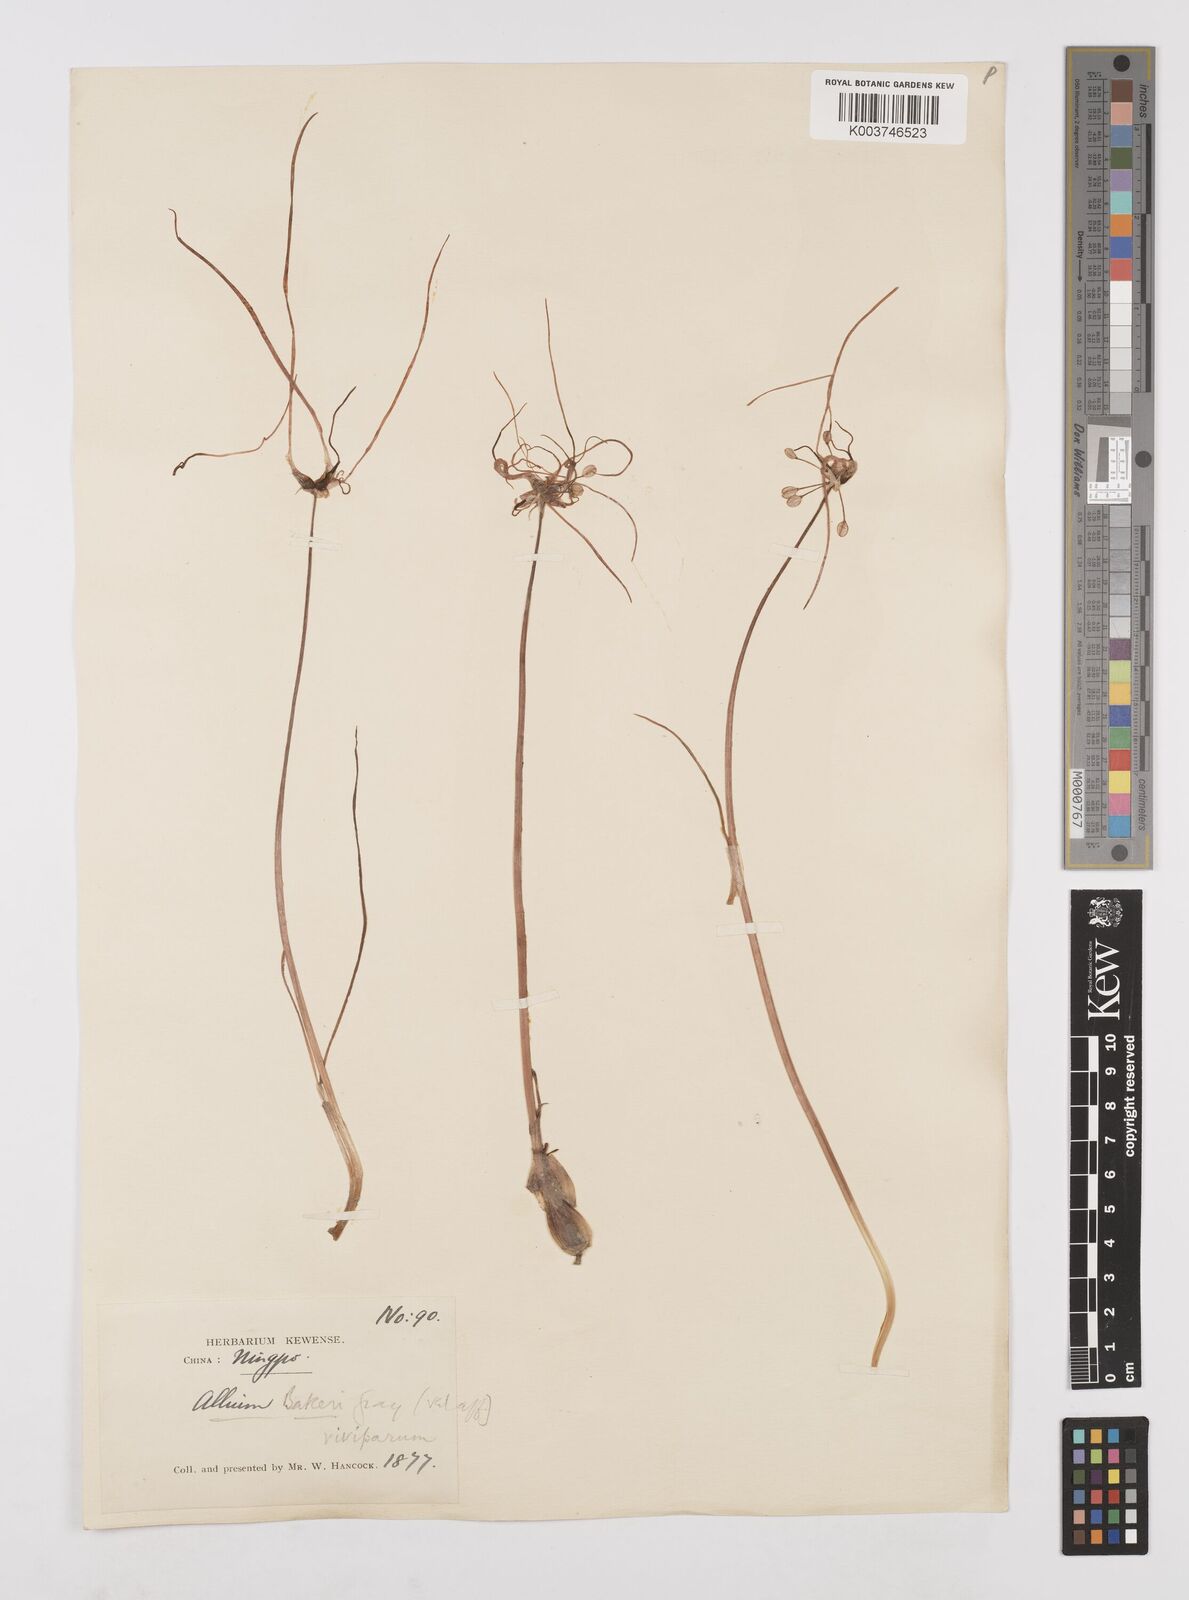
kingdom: Plantae
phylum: Tracheophyta
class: Liliopsida
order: Asparagales
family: Amaryllidaceae
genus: Allium
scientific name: Allium chinense
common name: Japanese scallion
